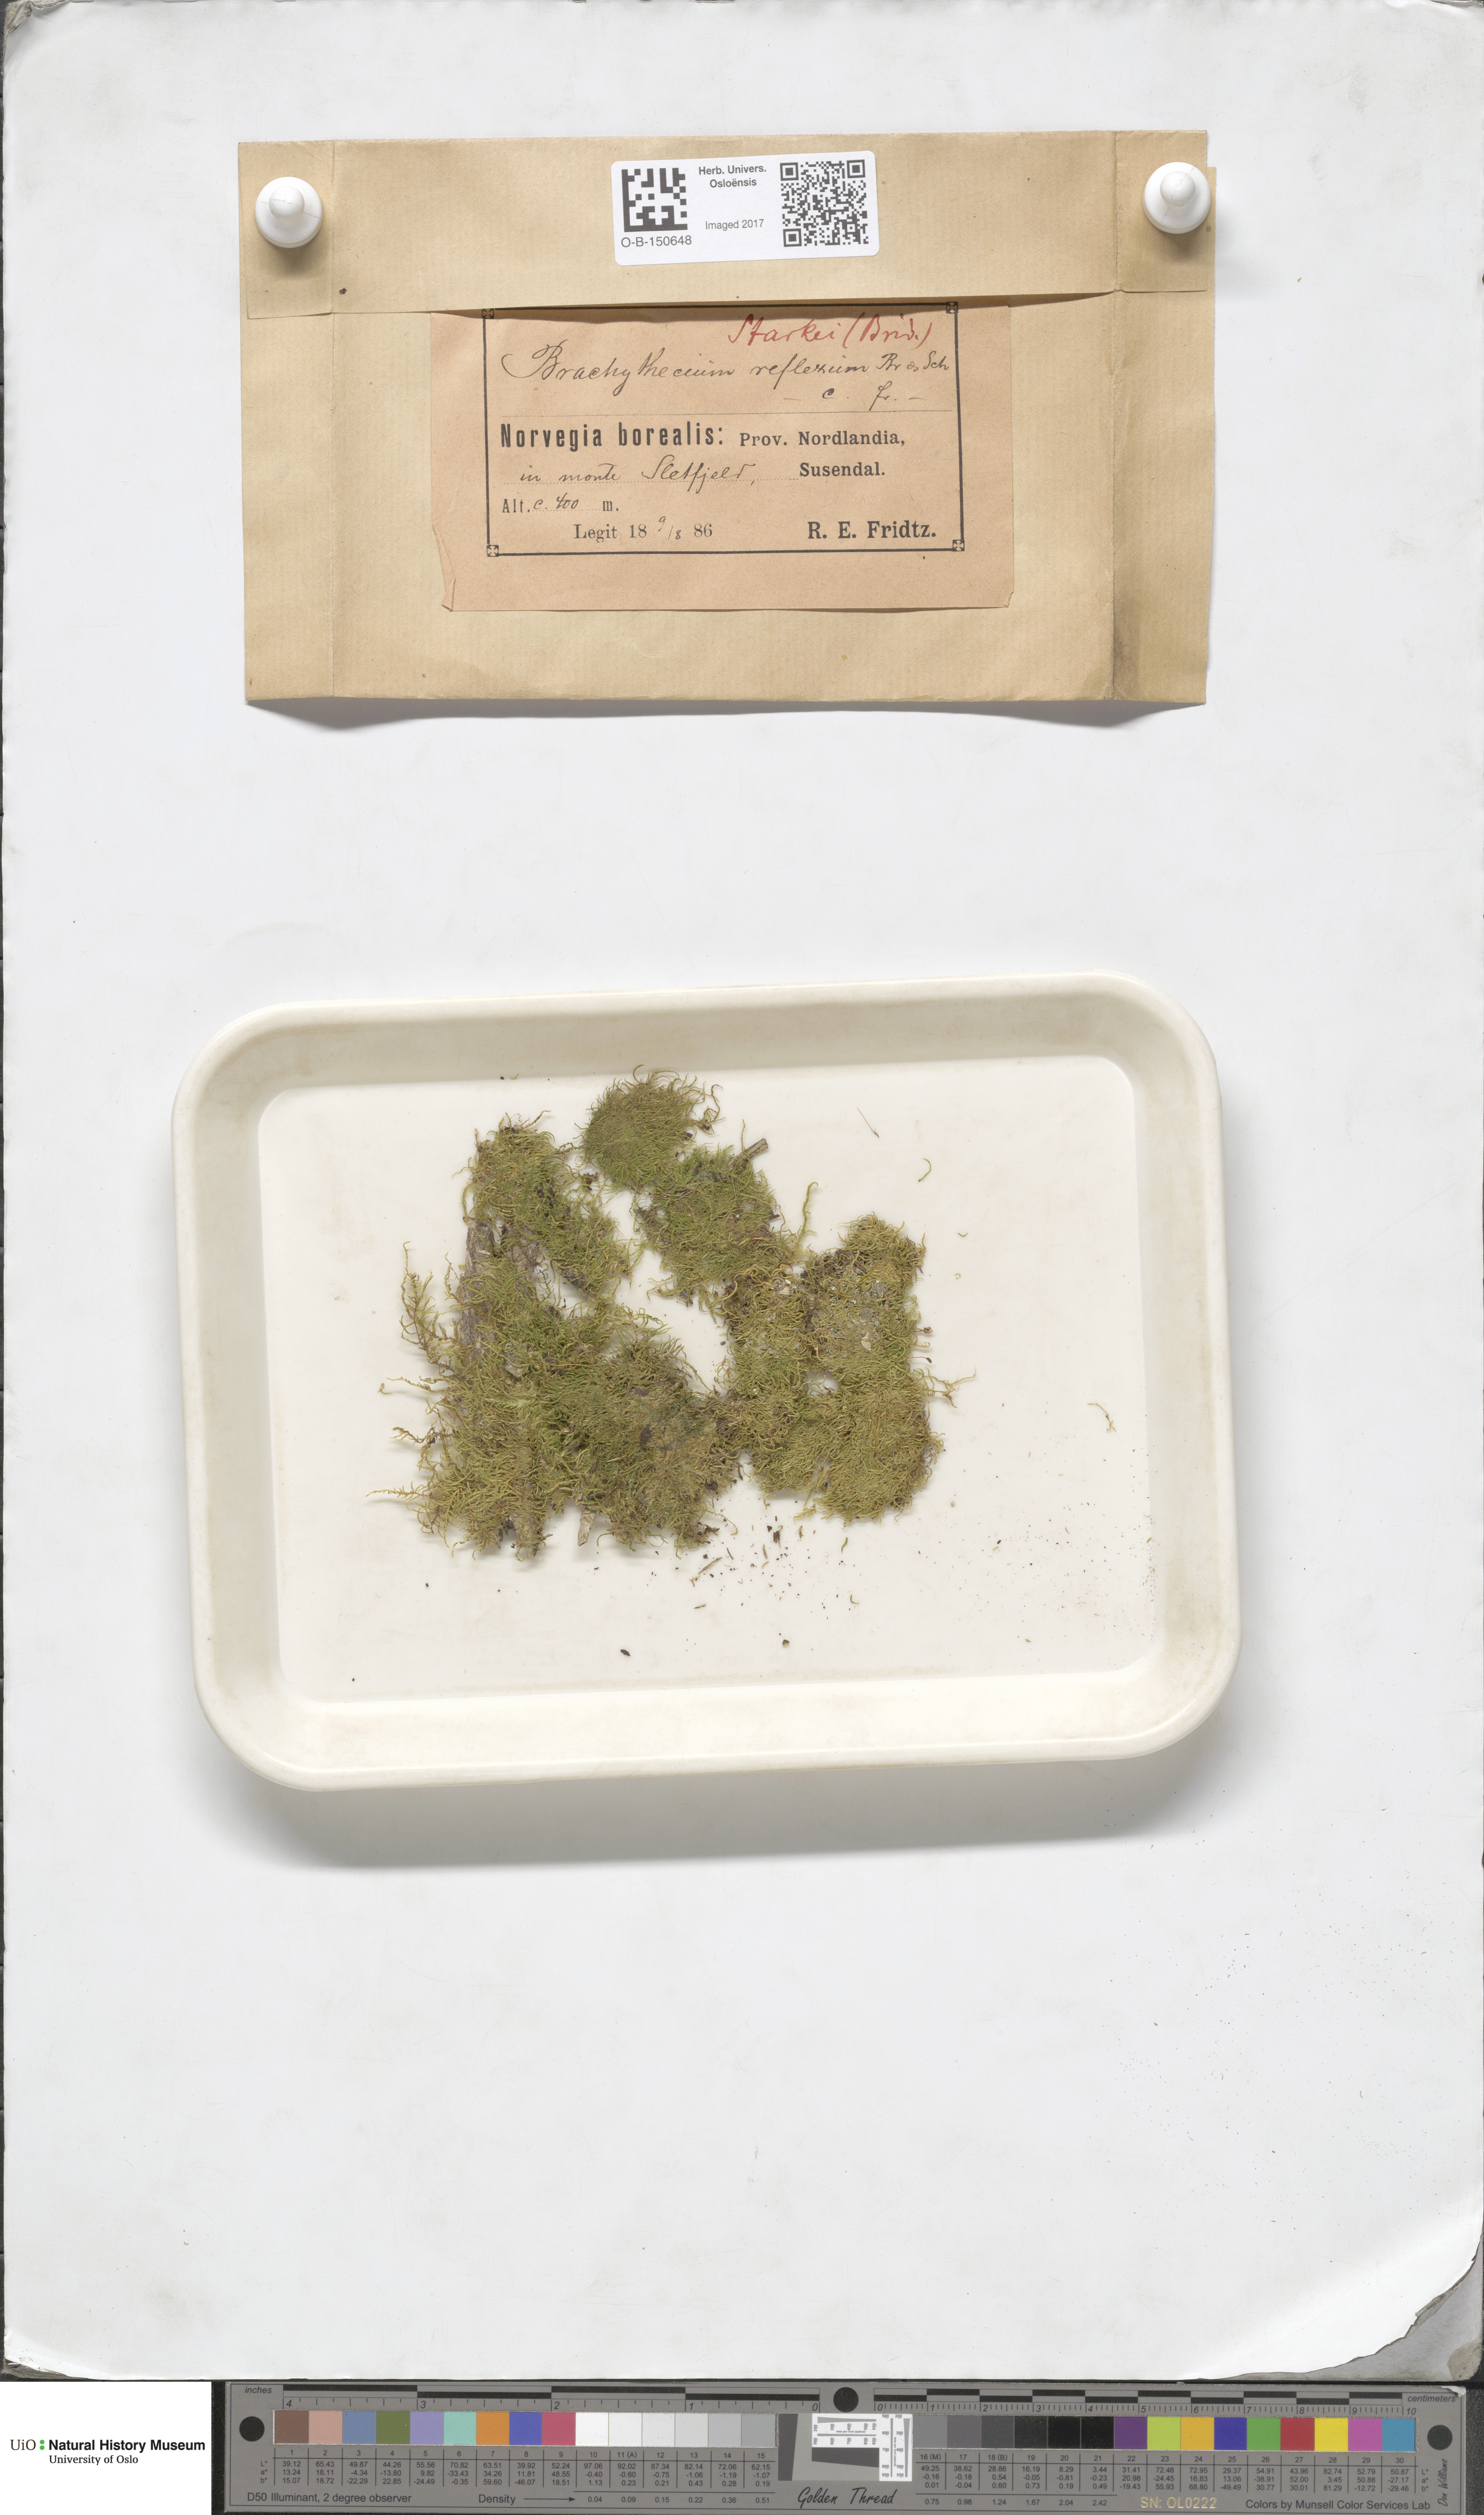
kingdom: Plantae
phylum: Bryophyta
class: Bryopsida
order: Hypnales
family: Brachytheciaceae
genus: Sciuro-hypnum
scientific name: Sciuro-hypnum starkei
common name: Starke's feather-moss
